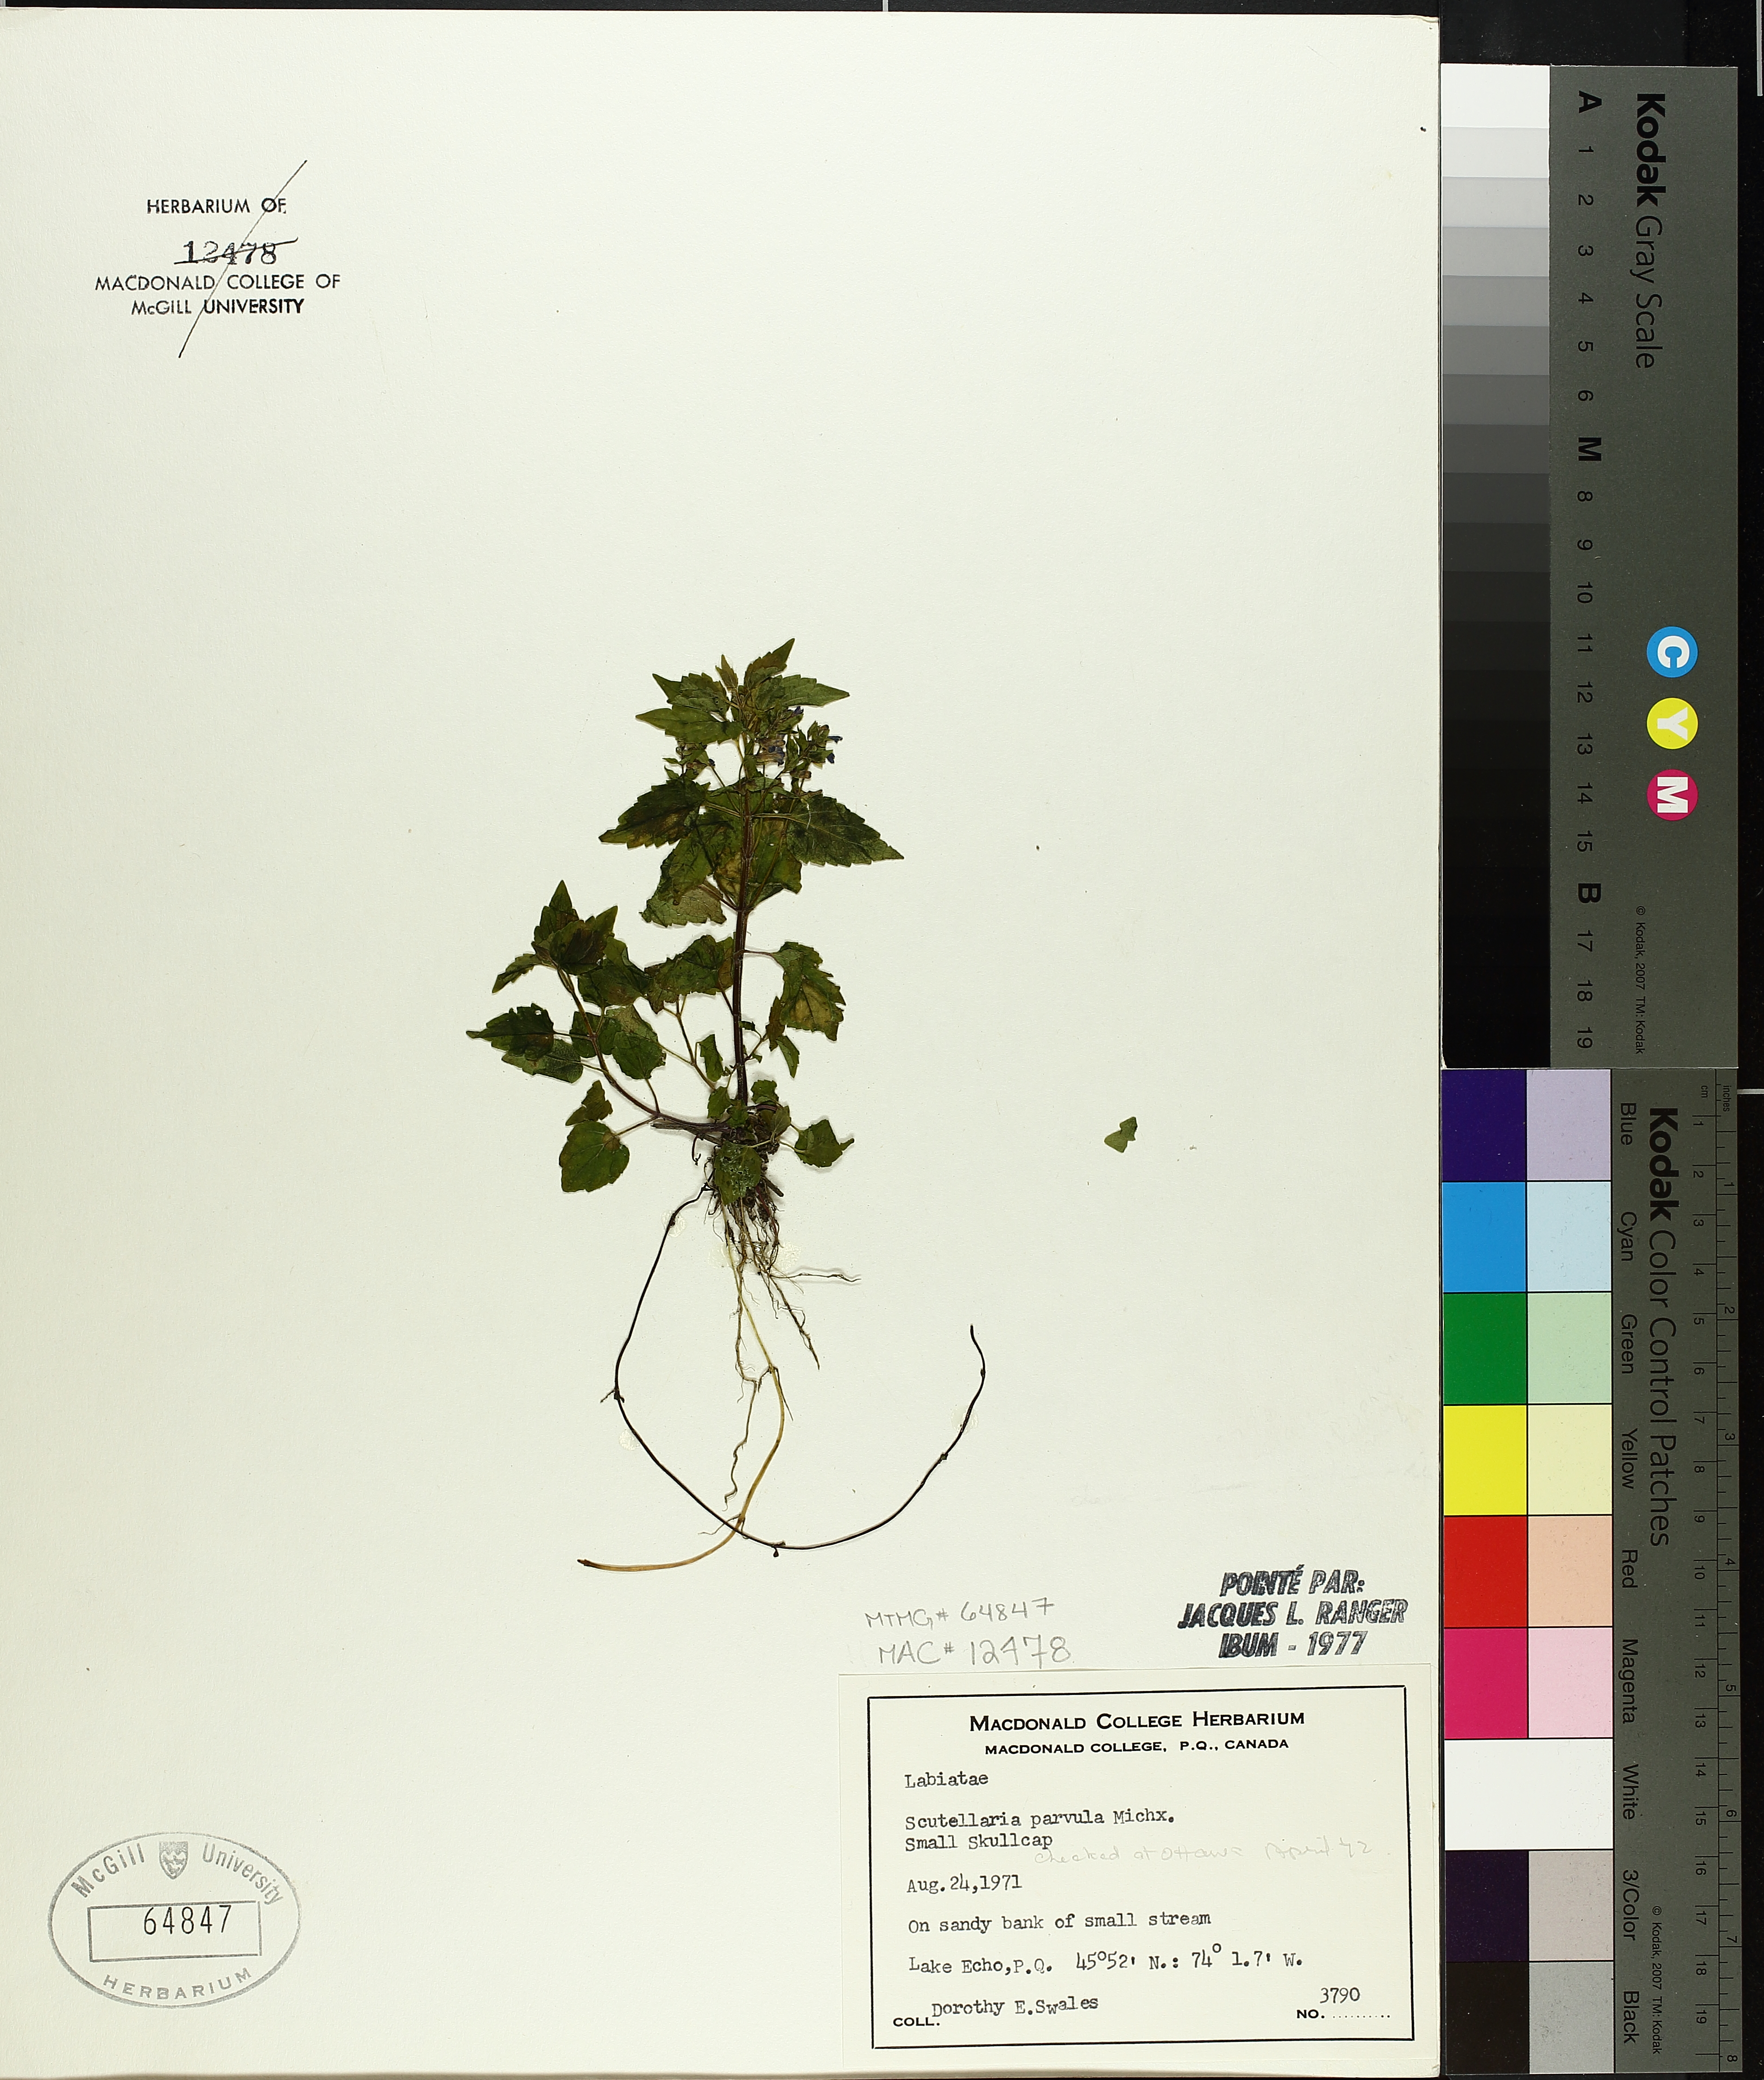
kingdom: Plantae
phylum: Tracheophyta
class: Magnoliopsida
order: Lamiales
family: Lamiaceae
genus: Scutellaria
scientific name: Scutellaria parvula
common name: Little scullcap
